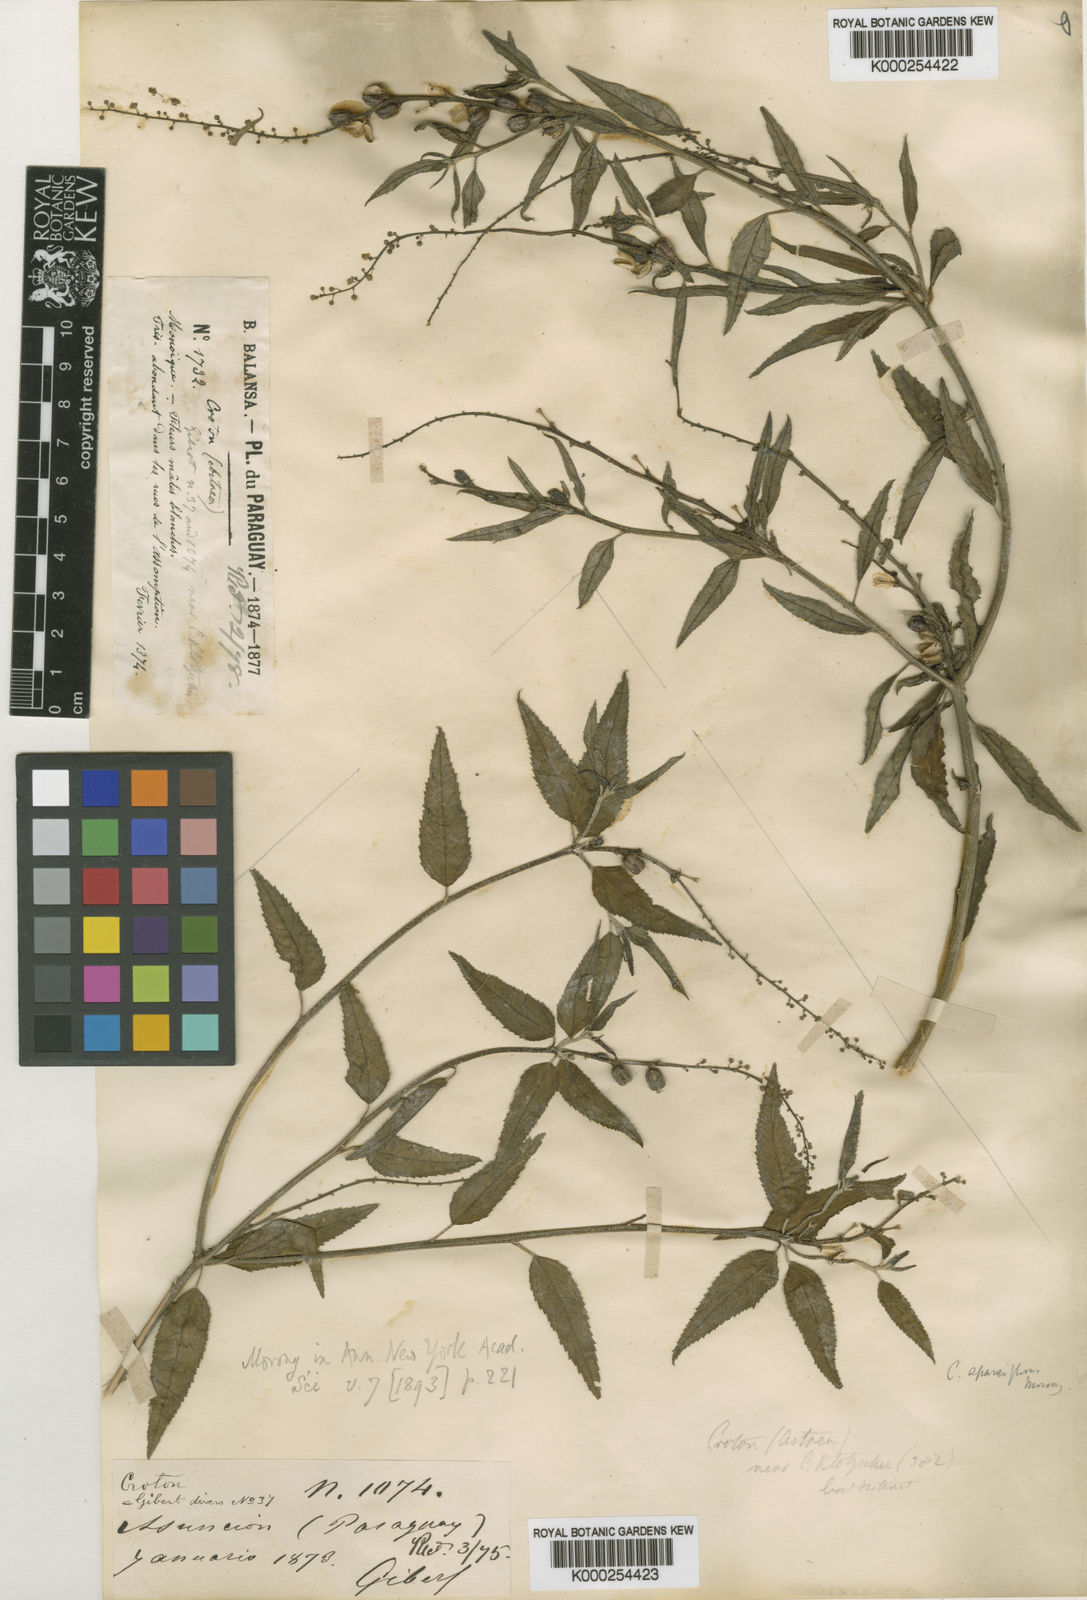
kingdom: Plantae
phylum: Tracheophyta
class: Magnoliopsida
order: Malpighiales
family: Euphorbiaceae
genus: Croton
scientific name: Croton bonplandianus
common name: Bonpland's croton
